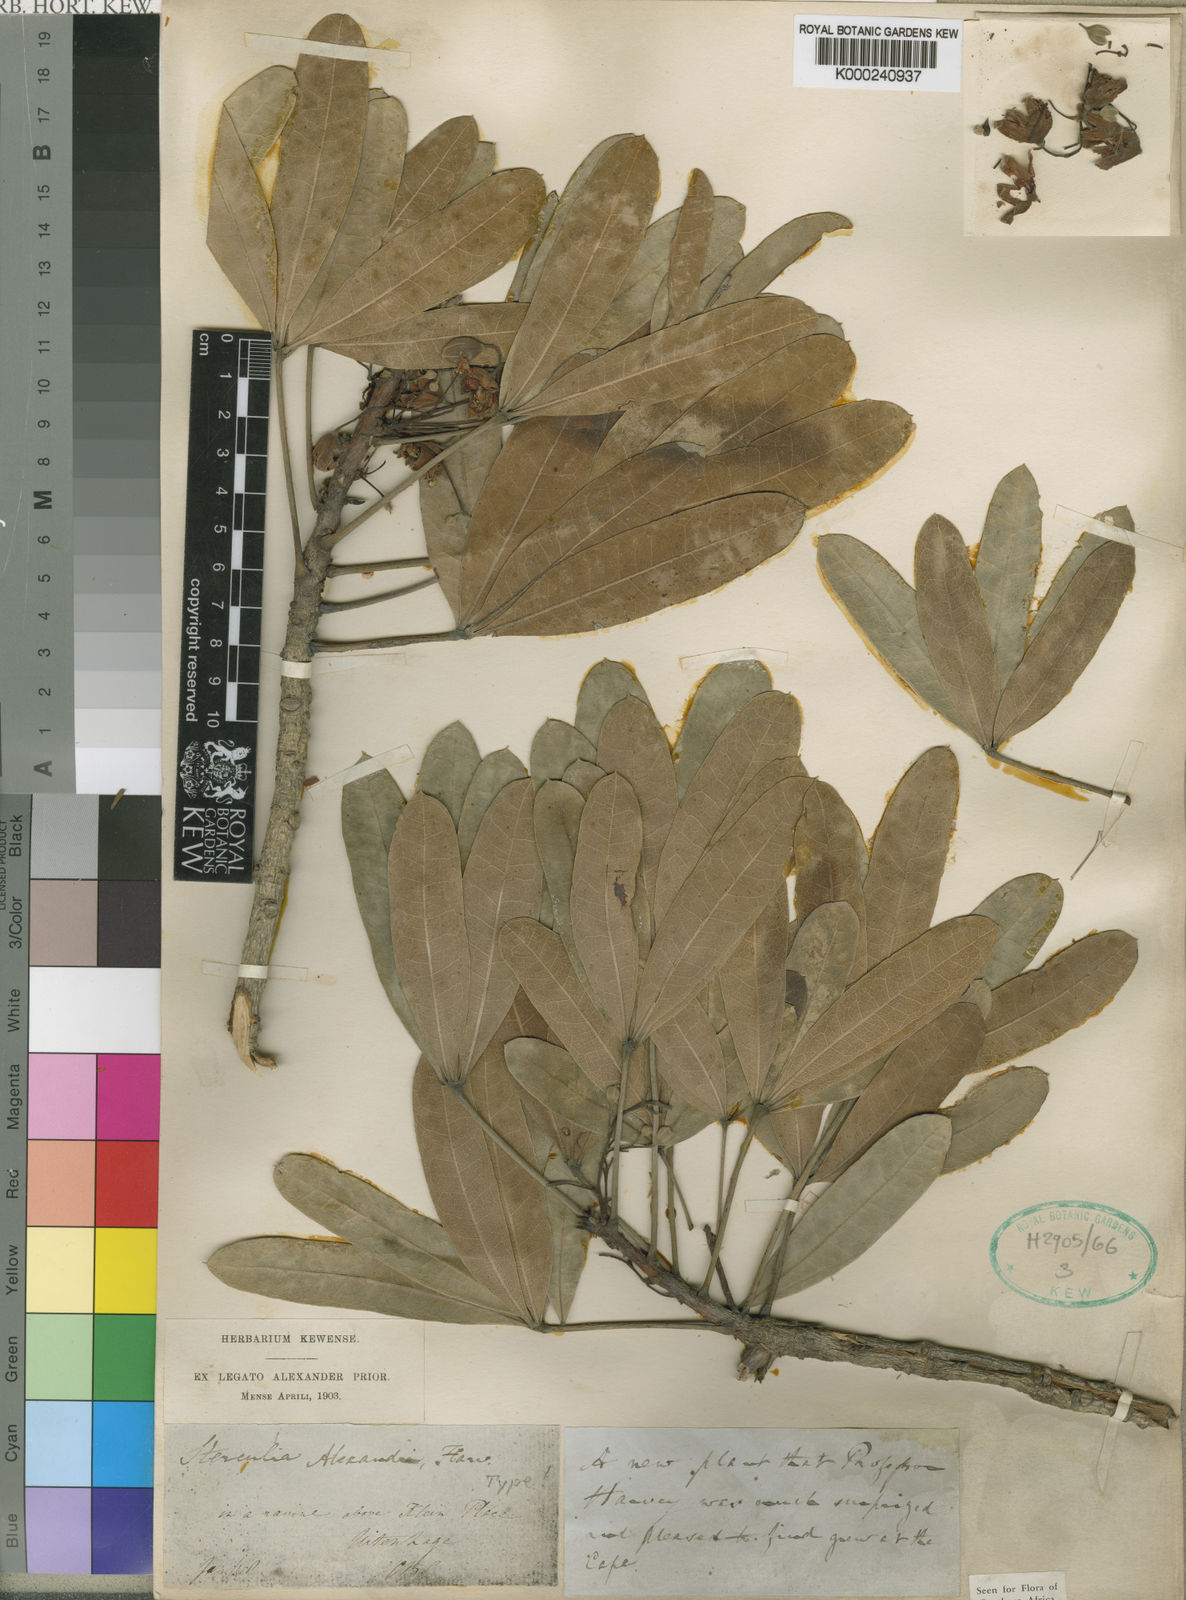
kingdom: Plantae
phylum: Tracheophyta
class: Magnoliopsida
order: Malvales
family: Malvaceae
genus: Sterculia
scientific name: Sterculia alexandri
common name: Cape star-chestnut
